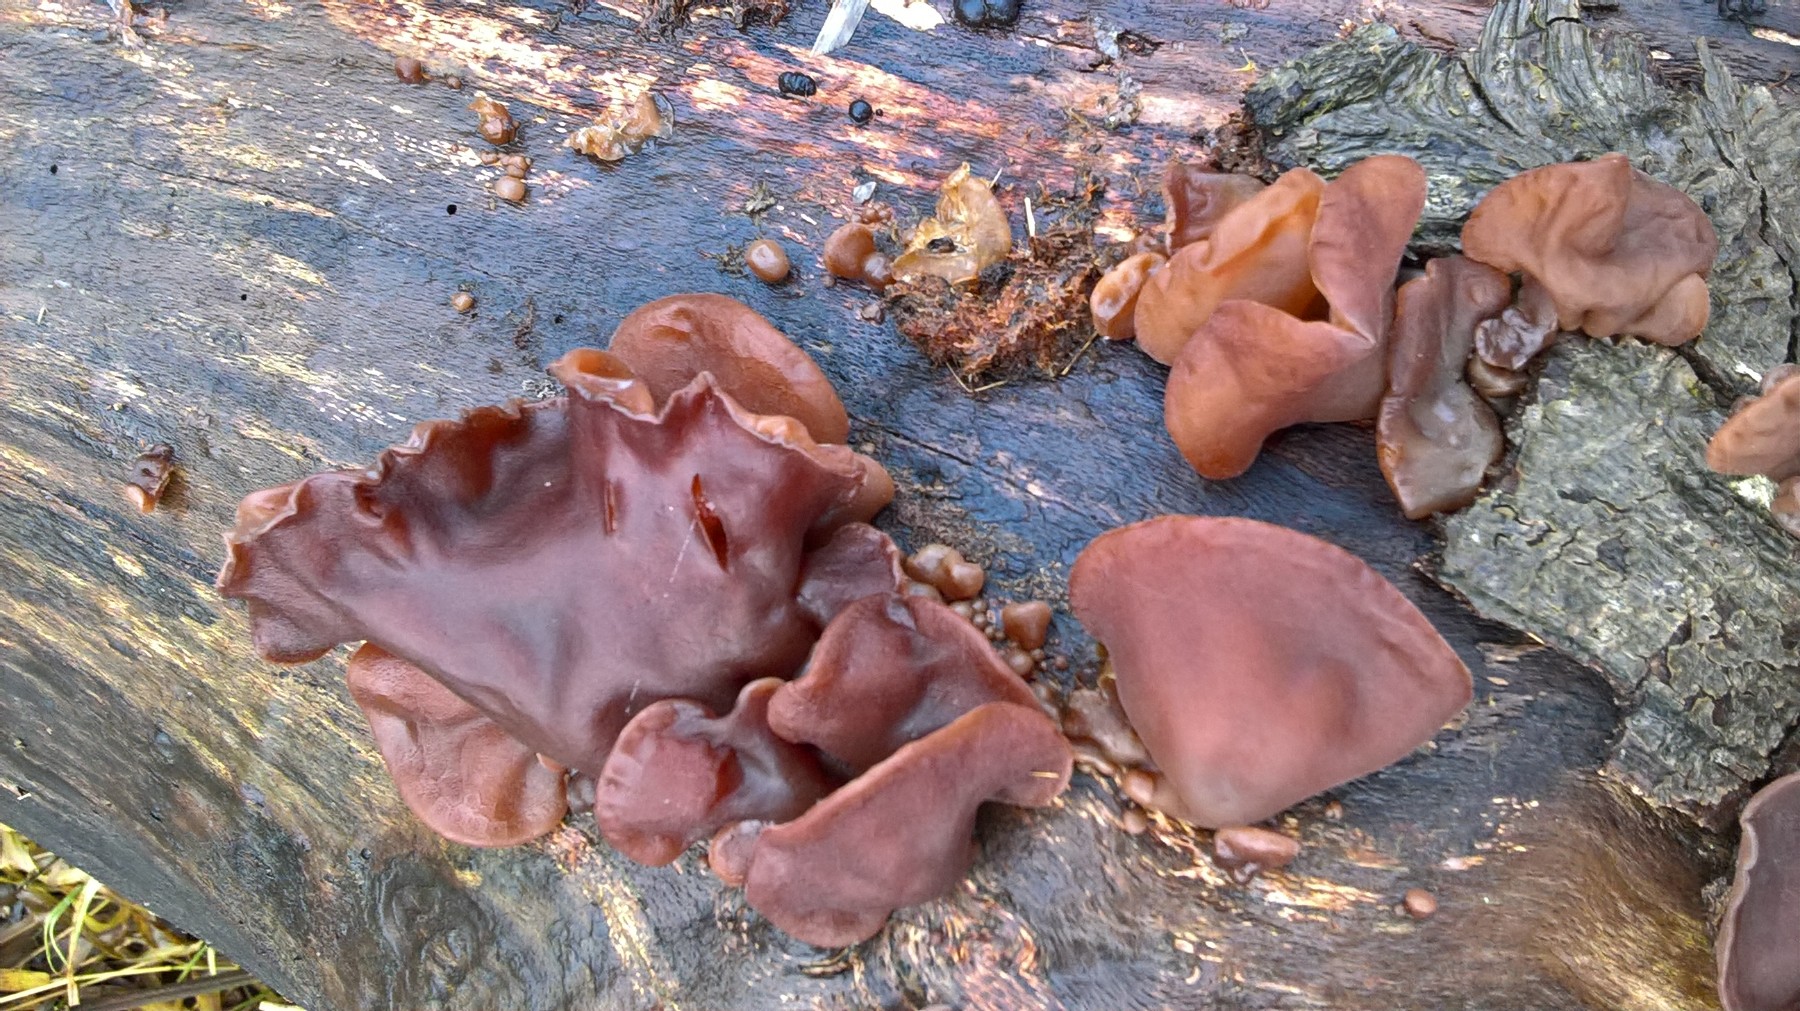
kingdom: Fungi
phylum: Basidiomycota
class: Agaricomycetes
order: Auriculariales
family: Auriculariaceae
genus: Auricularia
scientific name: Auricularia auricula-judae
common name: almindelig judasøre
